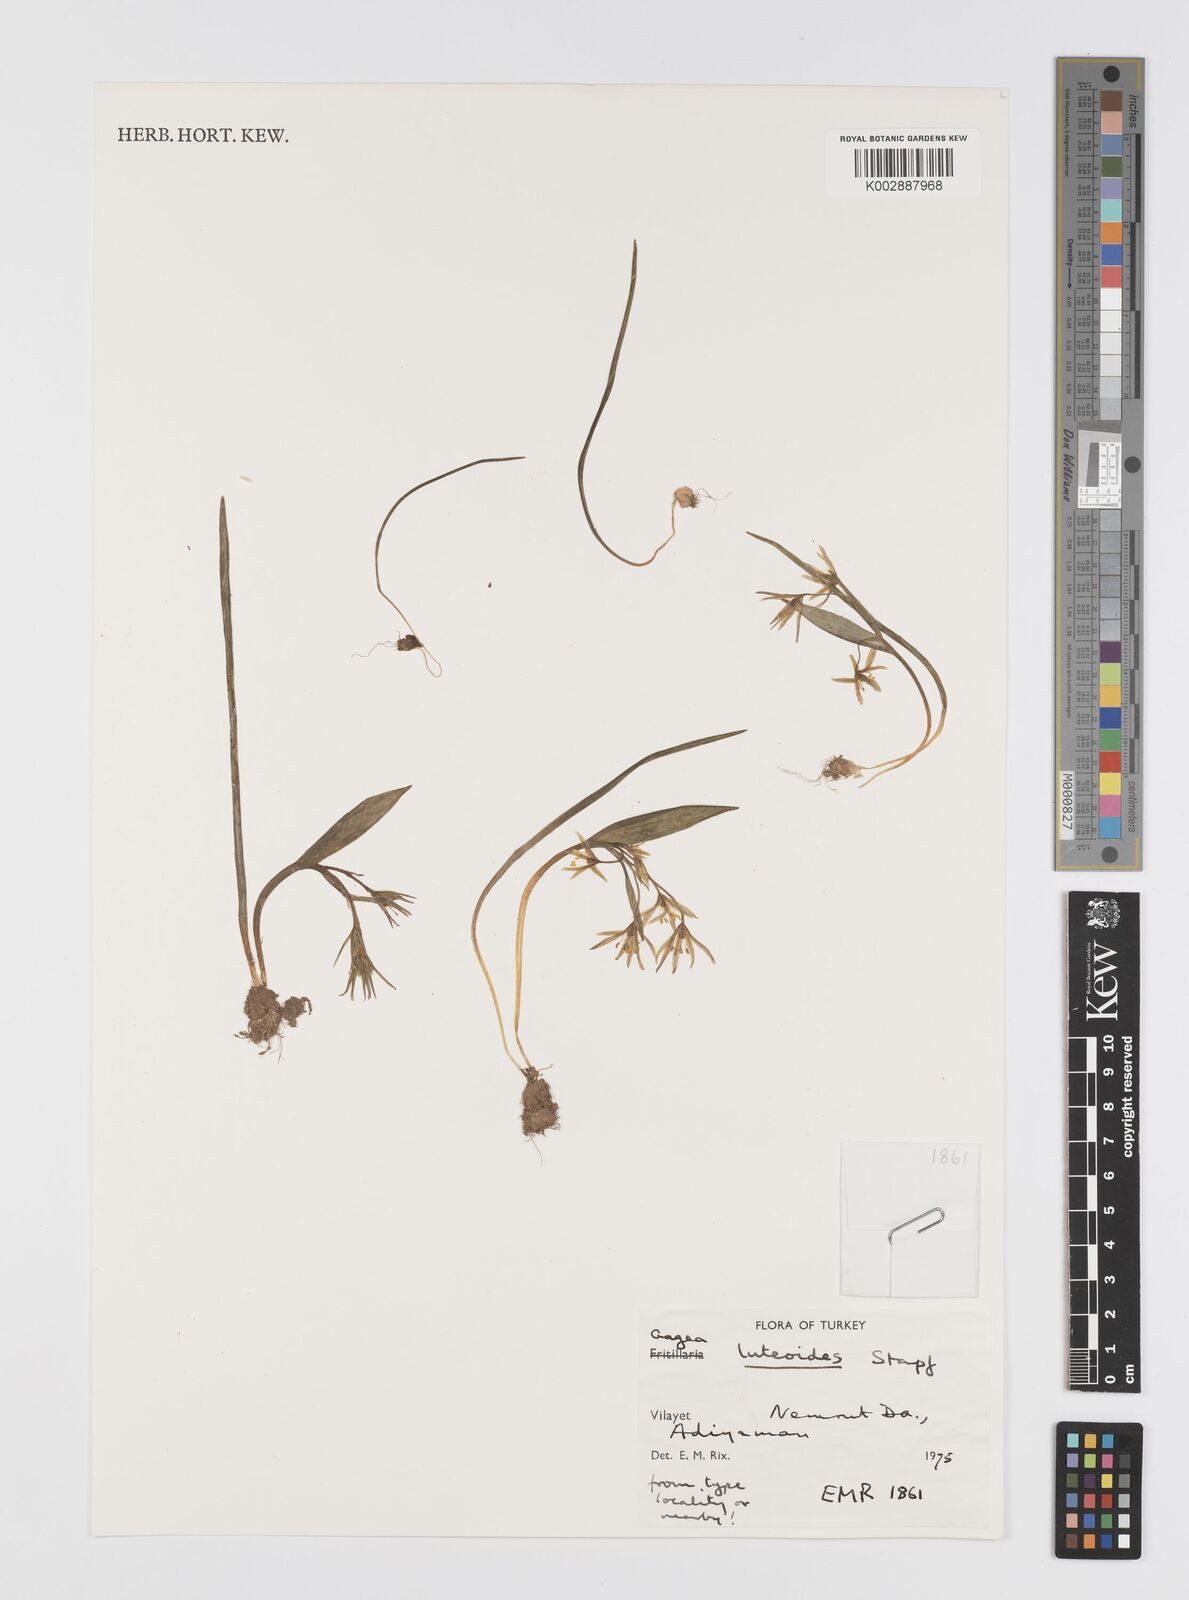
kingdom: Plantae
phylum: Tracheophyta
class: Liliopsida
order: Liliales
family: Liliaceae
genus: Gagea
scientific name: Gagea luteoides
